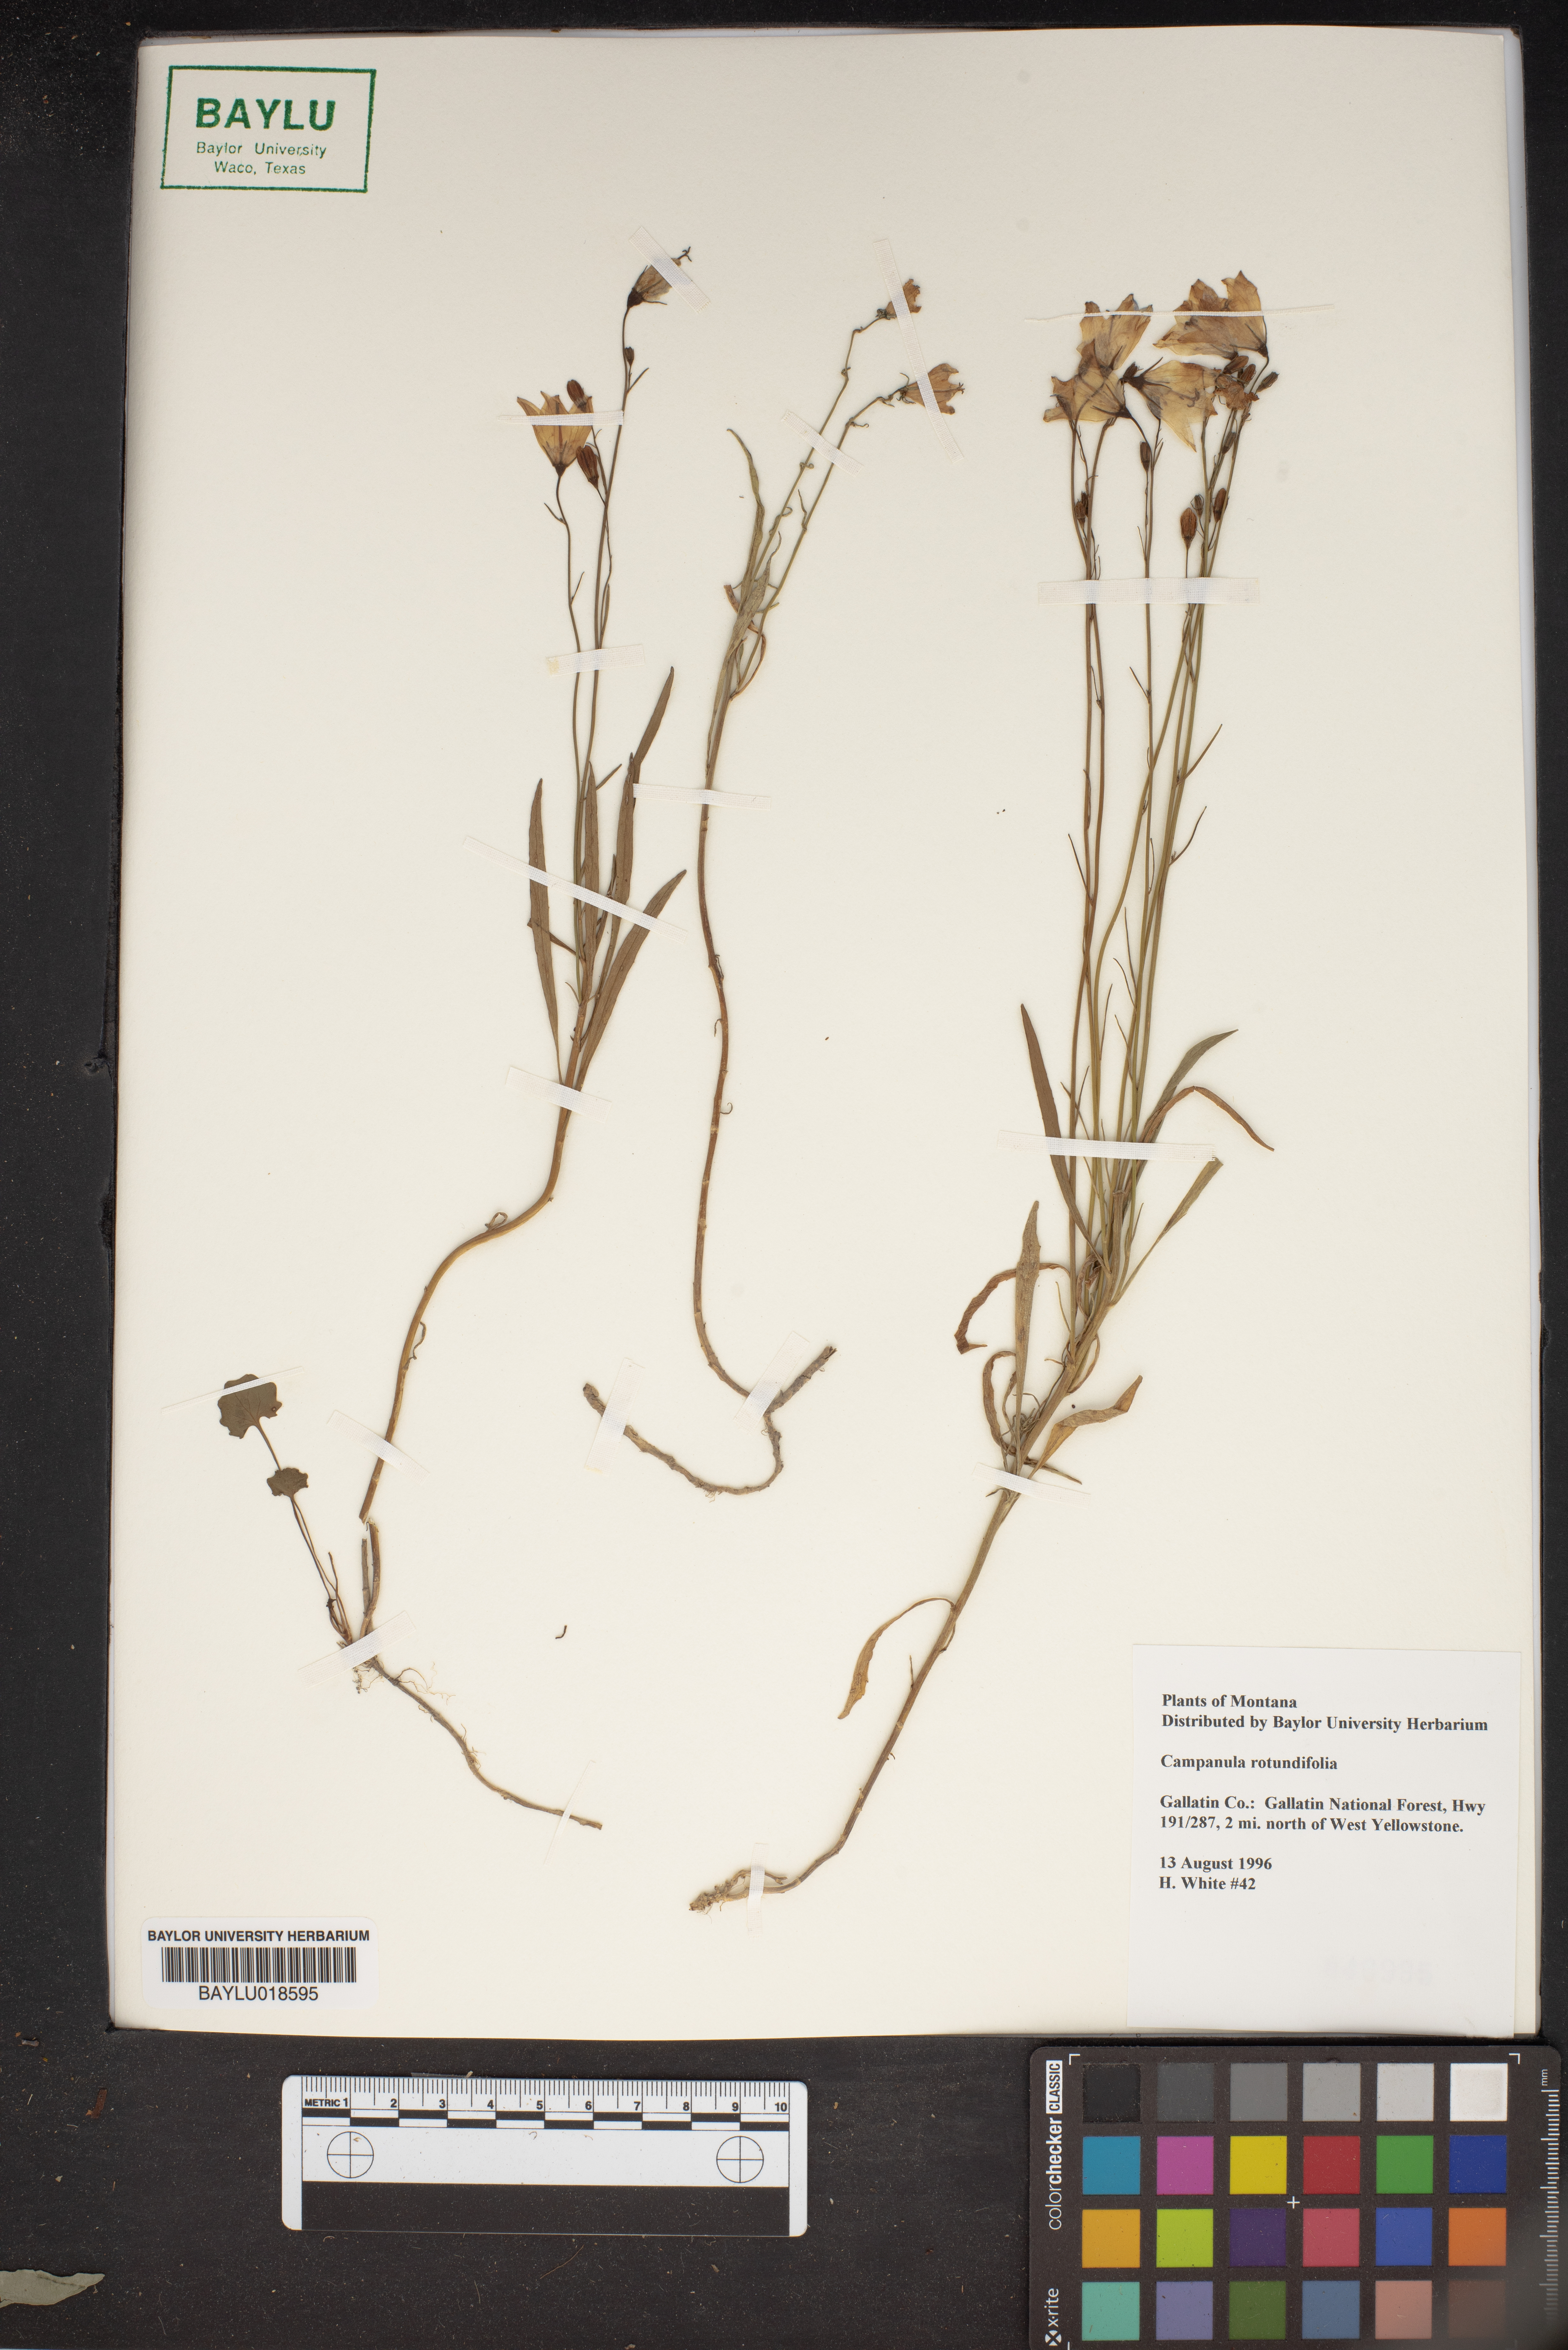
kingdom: Plantae
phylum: Tracheophyta
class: Magnoliopsida
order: Asterales
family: Campanulaceae
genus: Campanula
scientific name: Campanula rotundifolia
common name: Harebell
